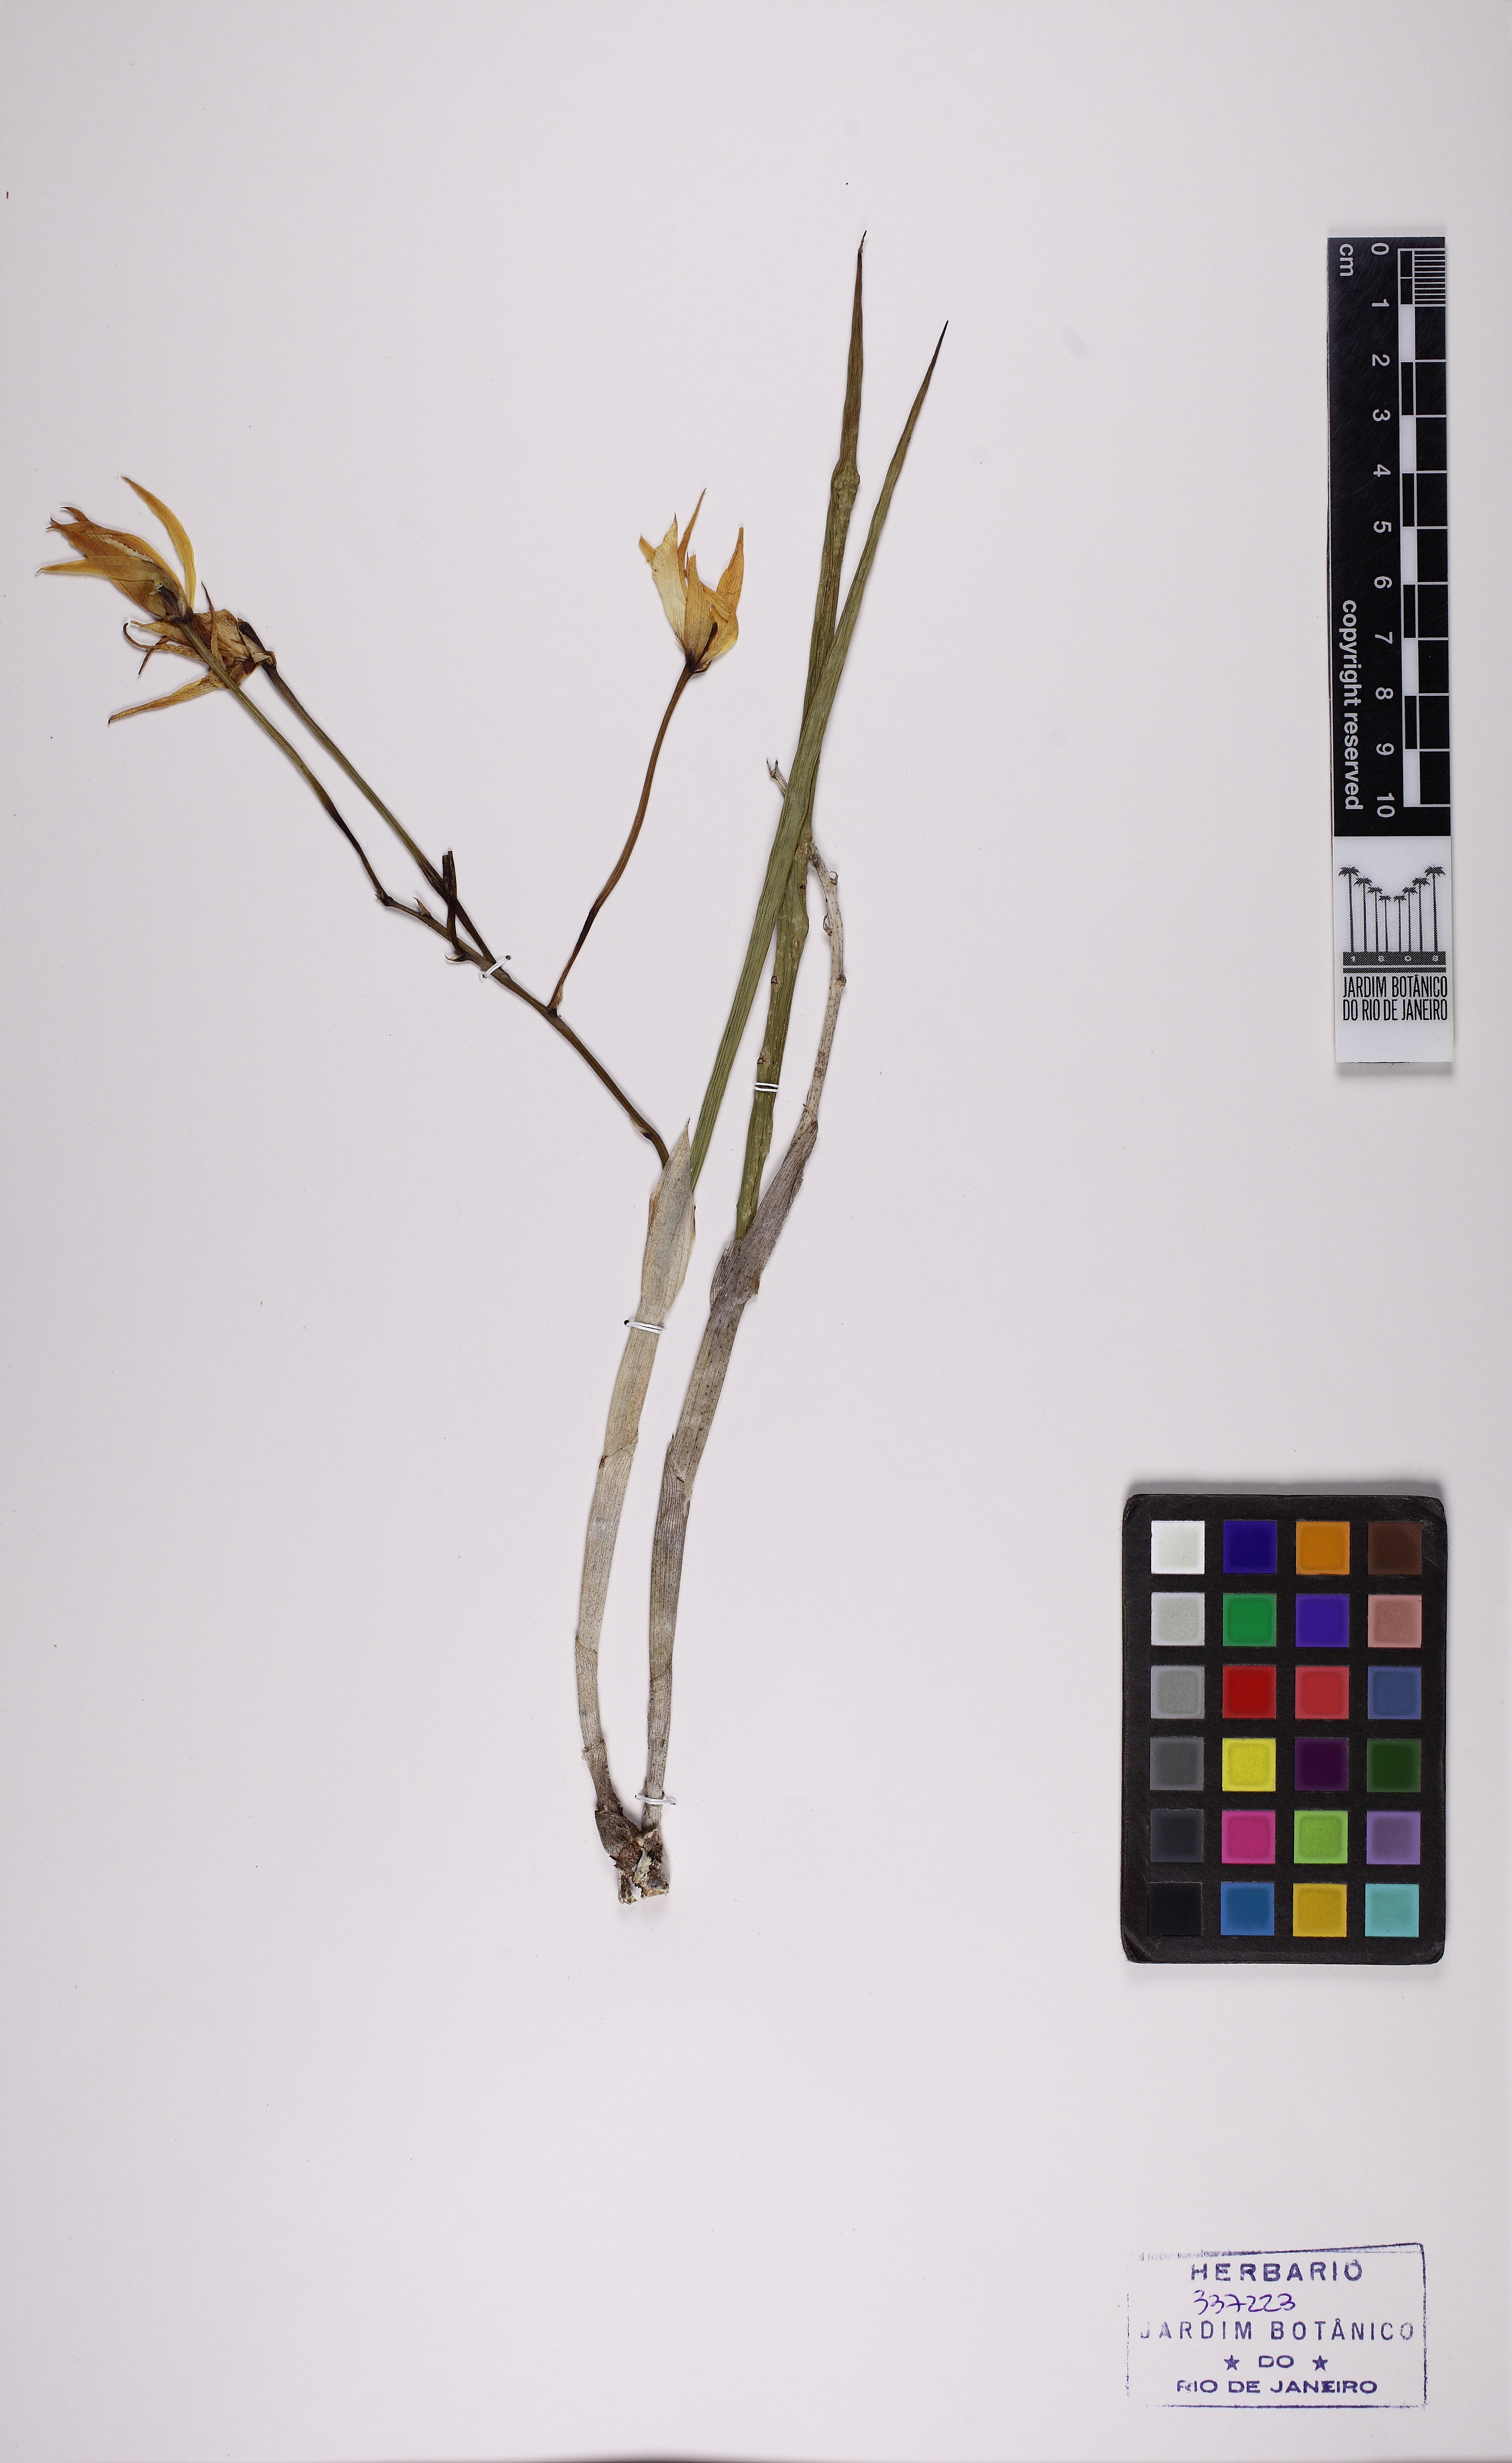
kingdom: Plantae
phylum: Tracheophyta
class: Liliopsida
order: Asparagales
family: Orchidaceae
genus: Brassavola
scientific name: Brassavola martiana
